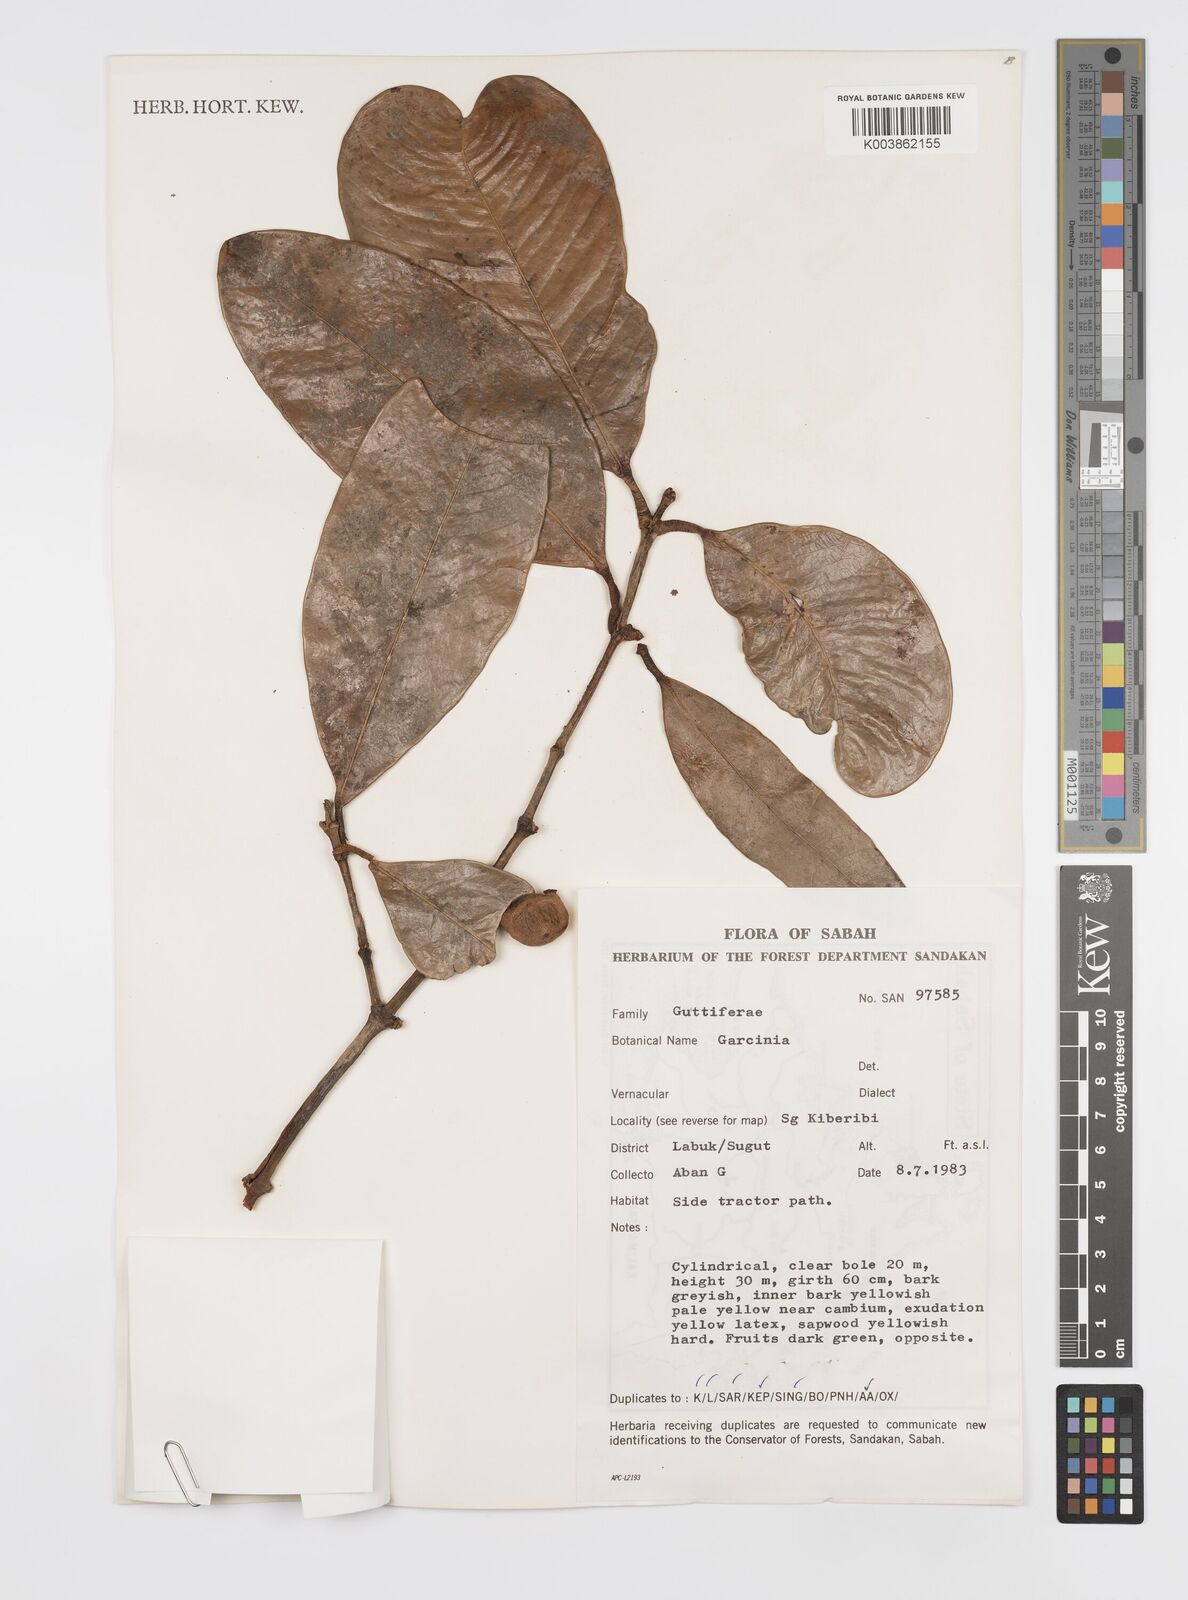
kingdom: Plantae
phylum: Tracheophyta
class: Magnoliopsida
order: Malpighiales
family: Clusiaceae
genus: Garcinia
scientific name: Garcinia
